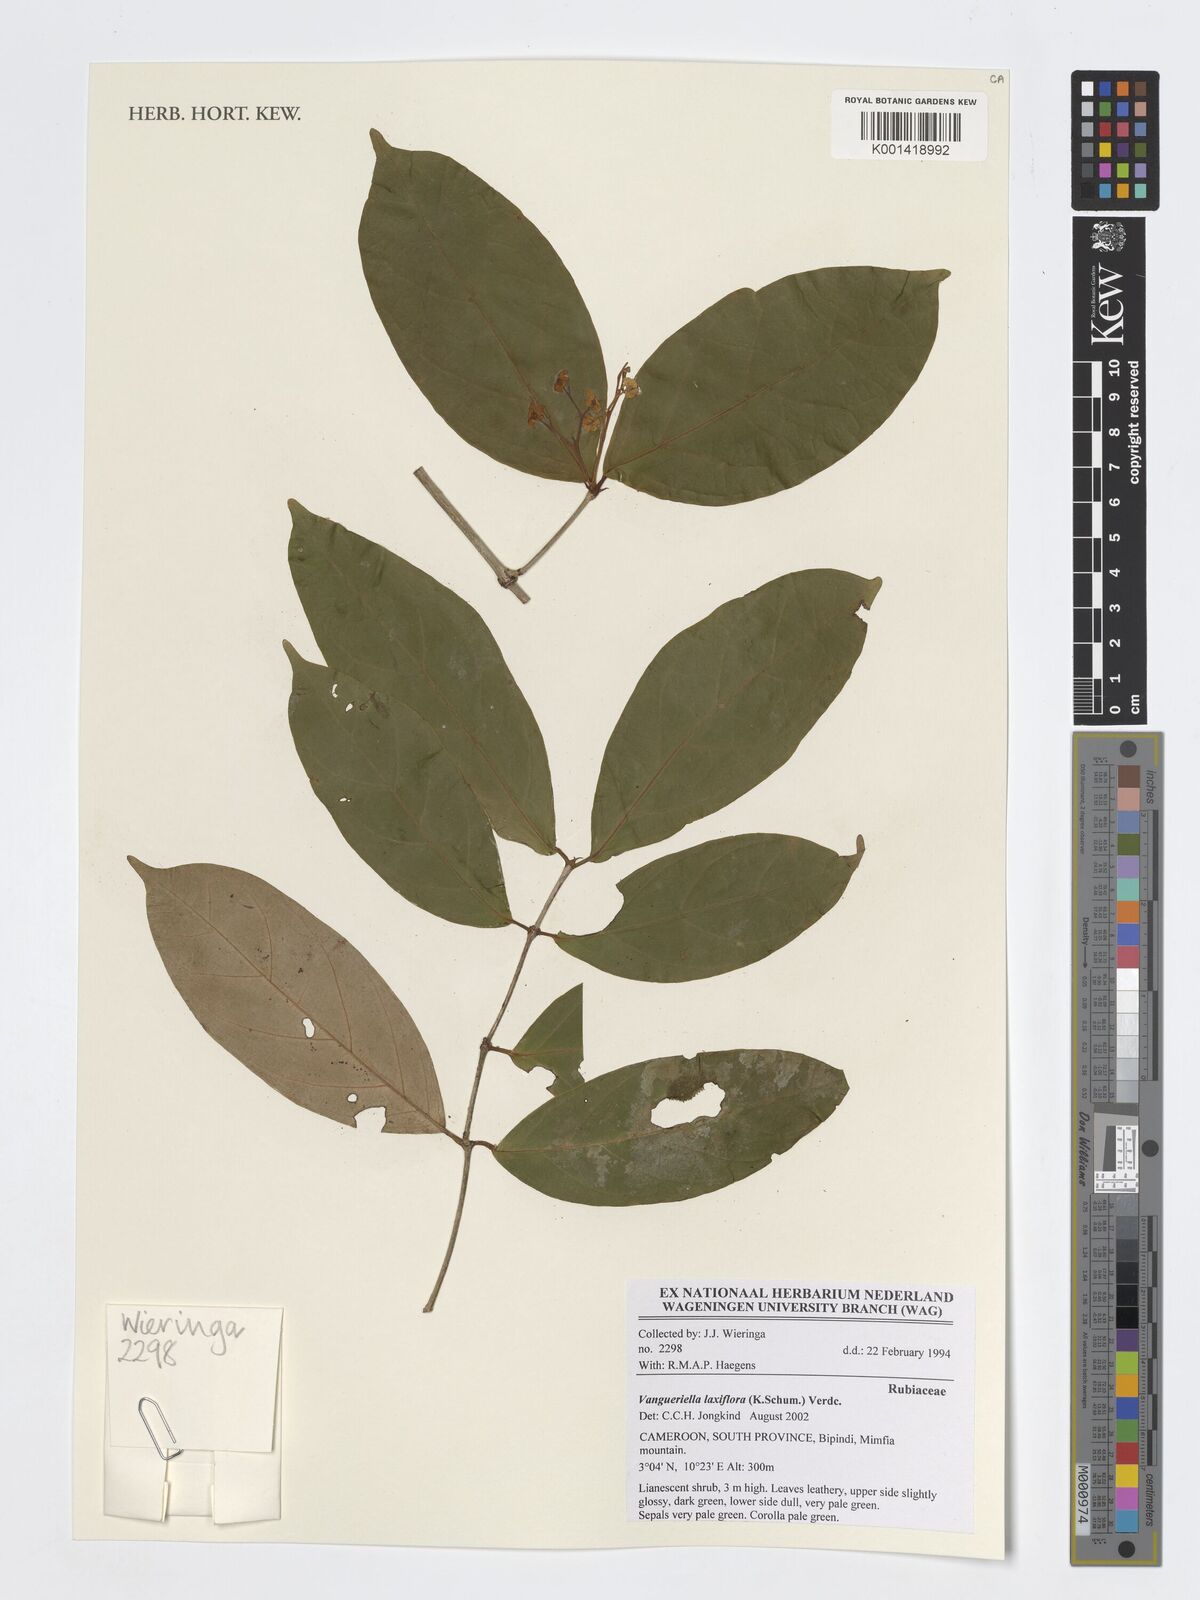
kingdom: Plantae
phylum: Tracheophyta
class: Magnoliopsida
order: Gentianales
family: Rubiaceae
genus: Vangueriella
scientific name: Vangueriella laxiflora
